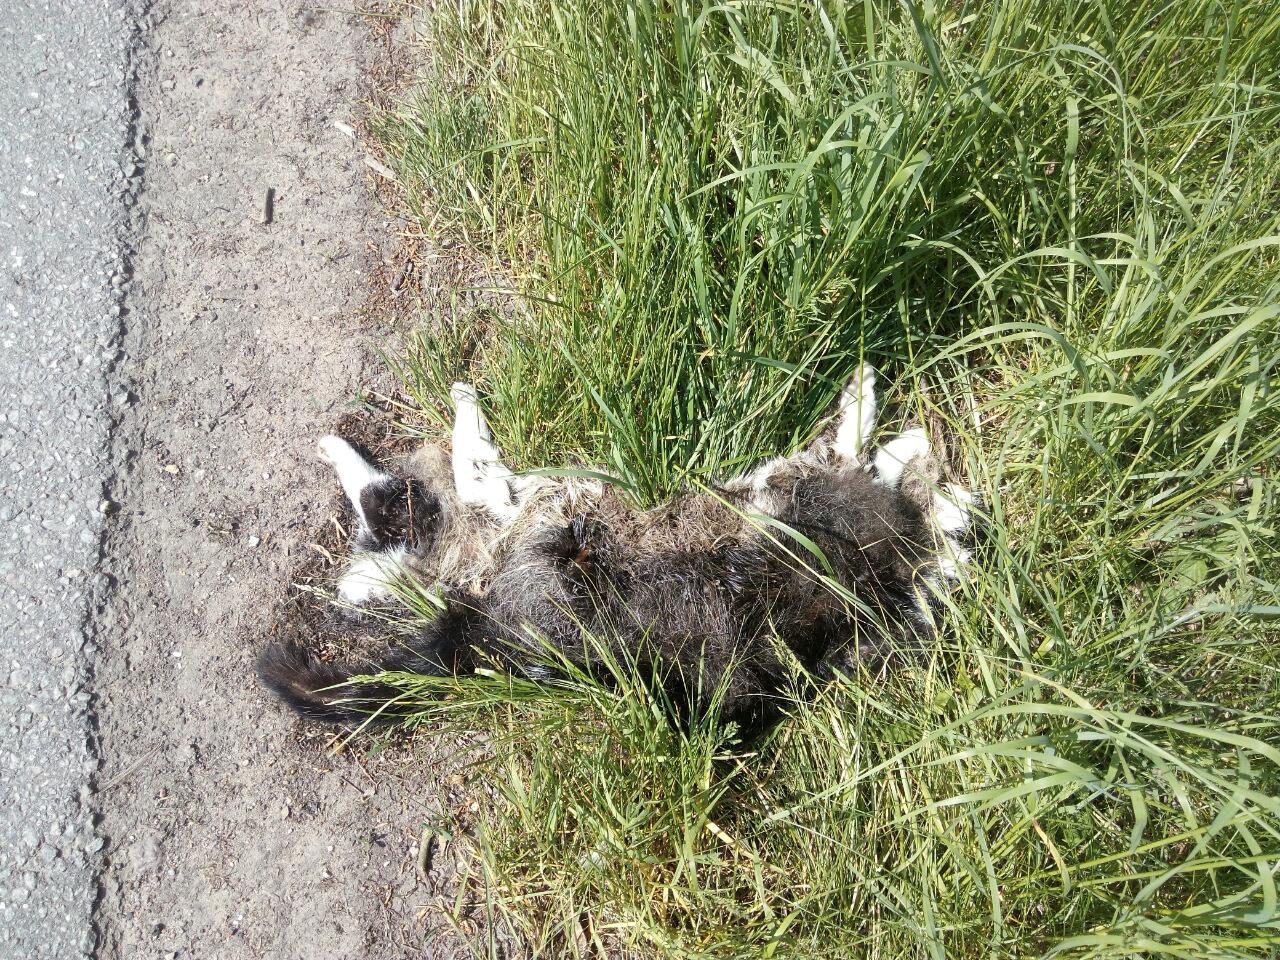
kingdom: Animalia
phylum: Chordata
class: Mammalia
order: Carnivora
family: Felidae
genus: Felis
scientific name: Felis catus
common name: Domestic cat
